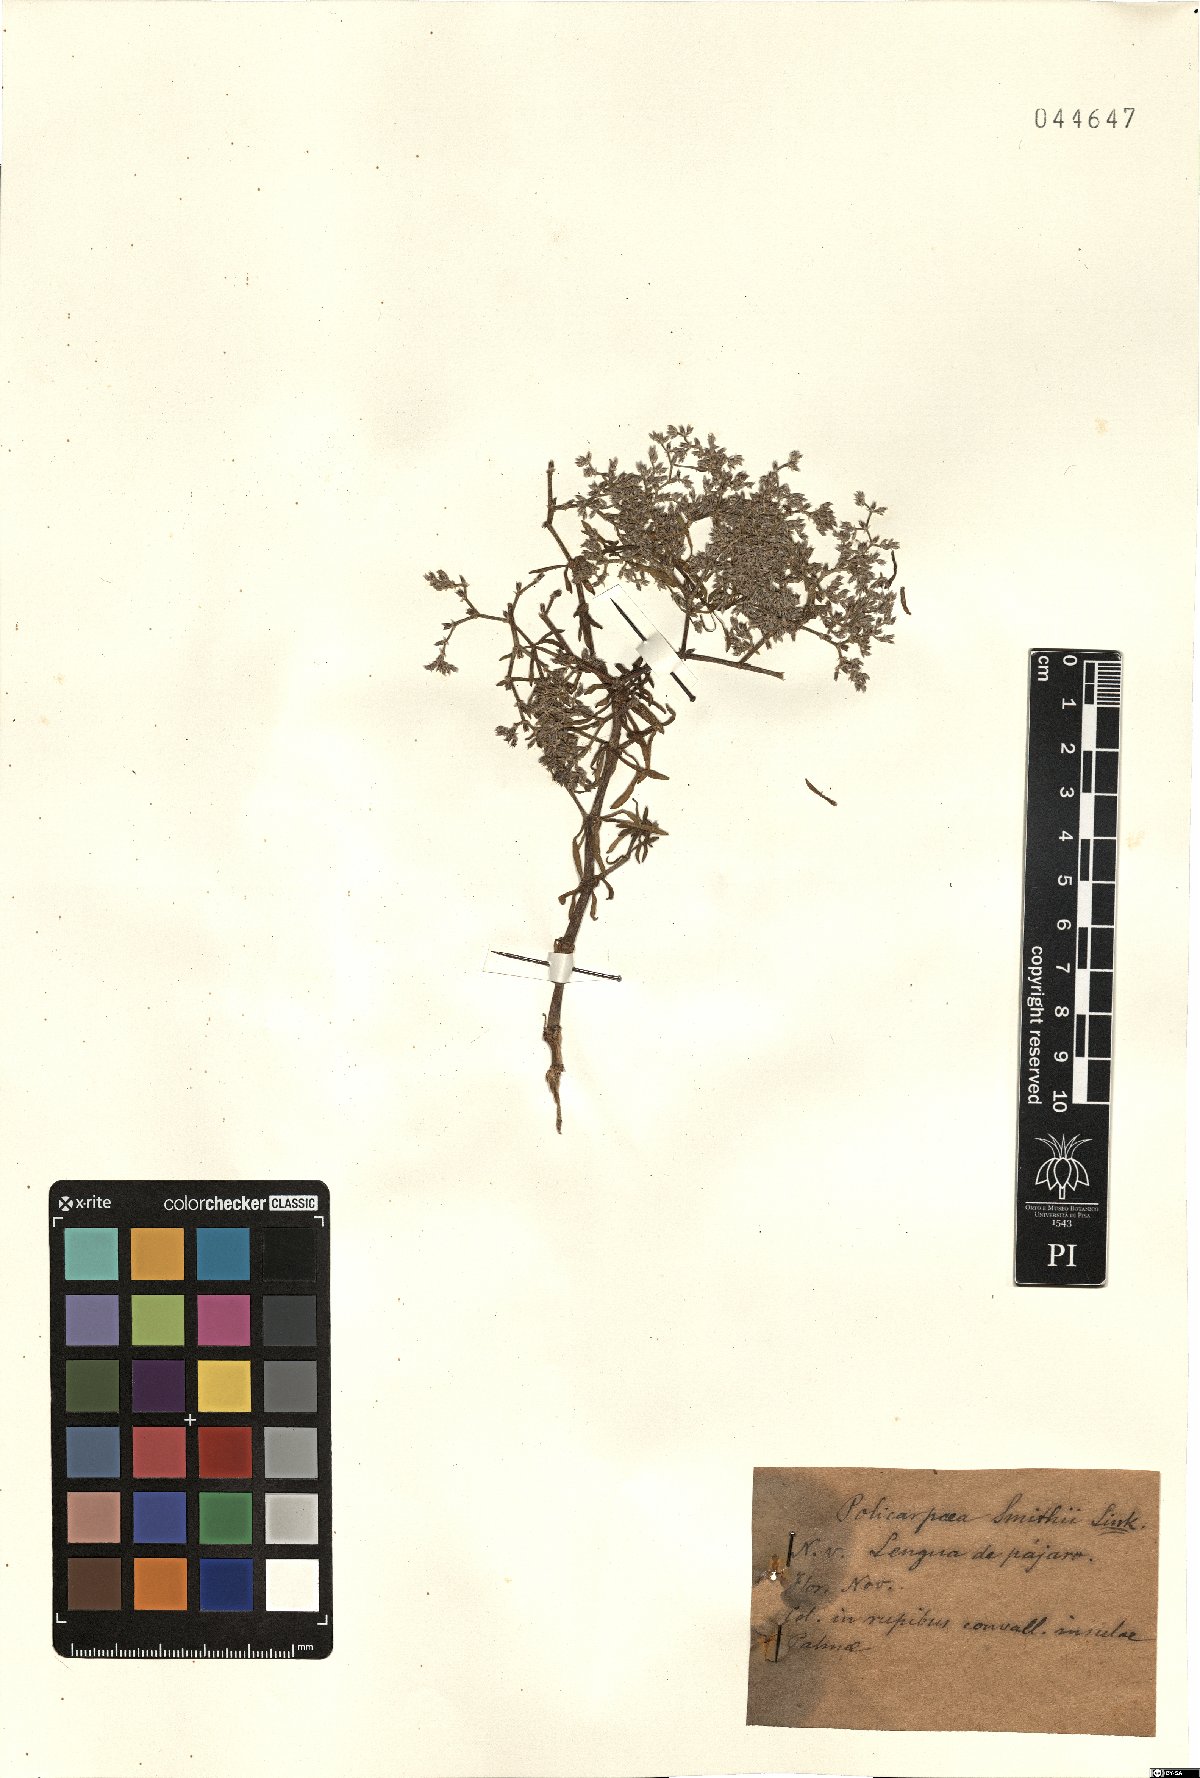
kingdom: Plantae
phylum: Tracheophyta
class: Magnoliopsida
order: Caryophyllales
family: Caryophyllaceae
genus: Polycarpaea
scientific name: Polycarpaea smithii
